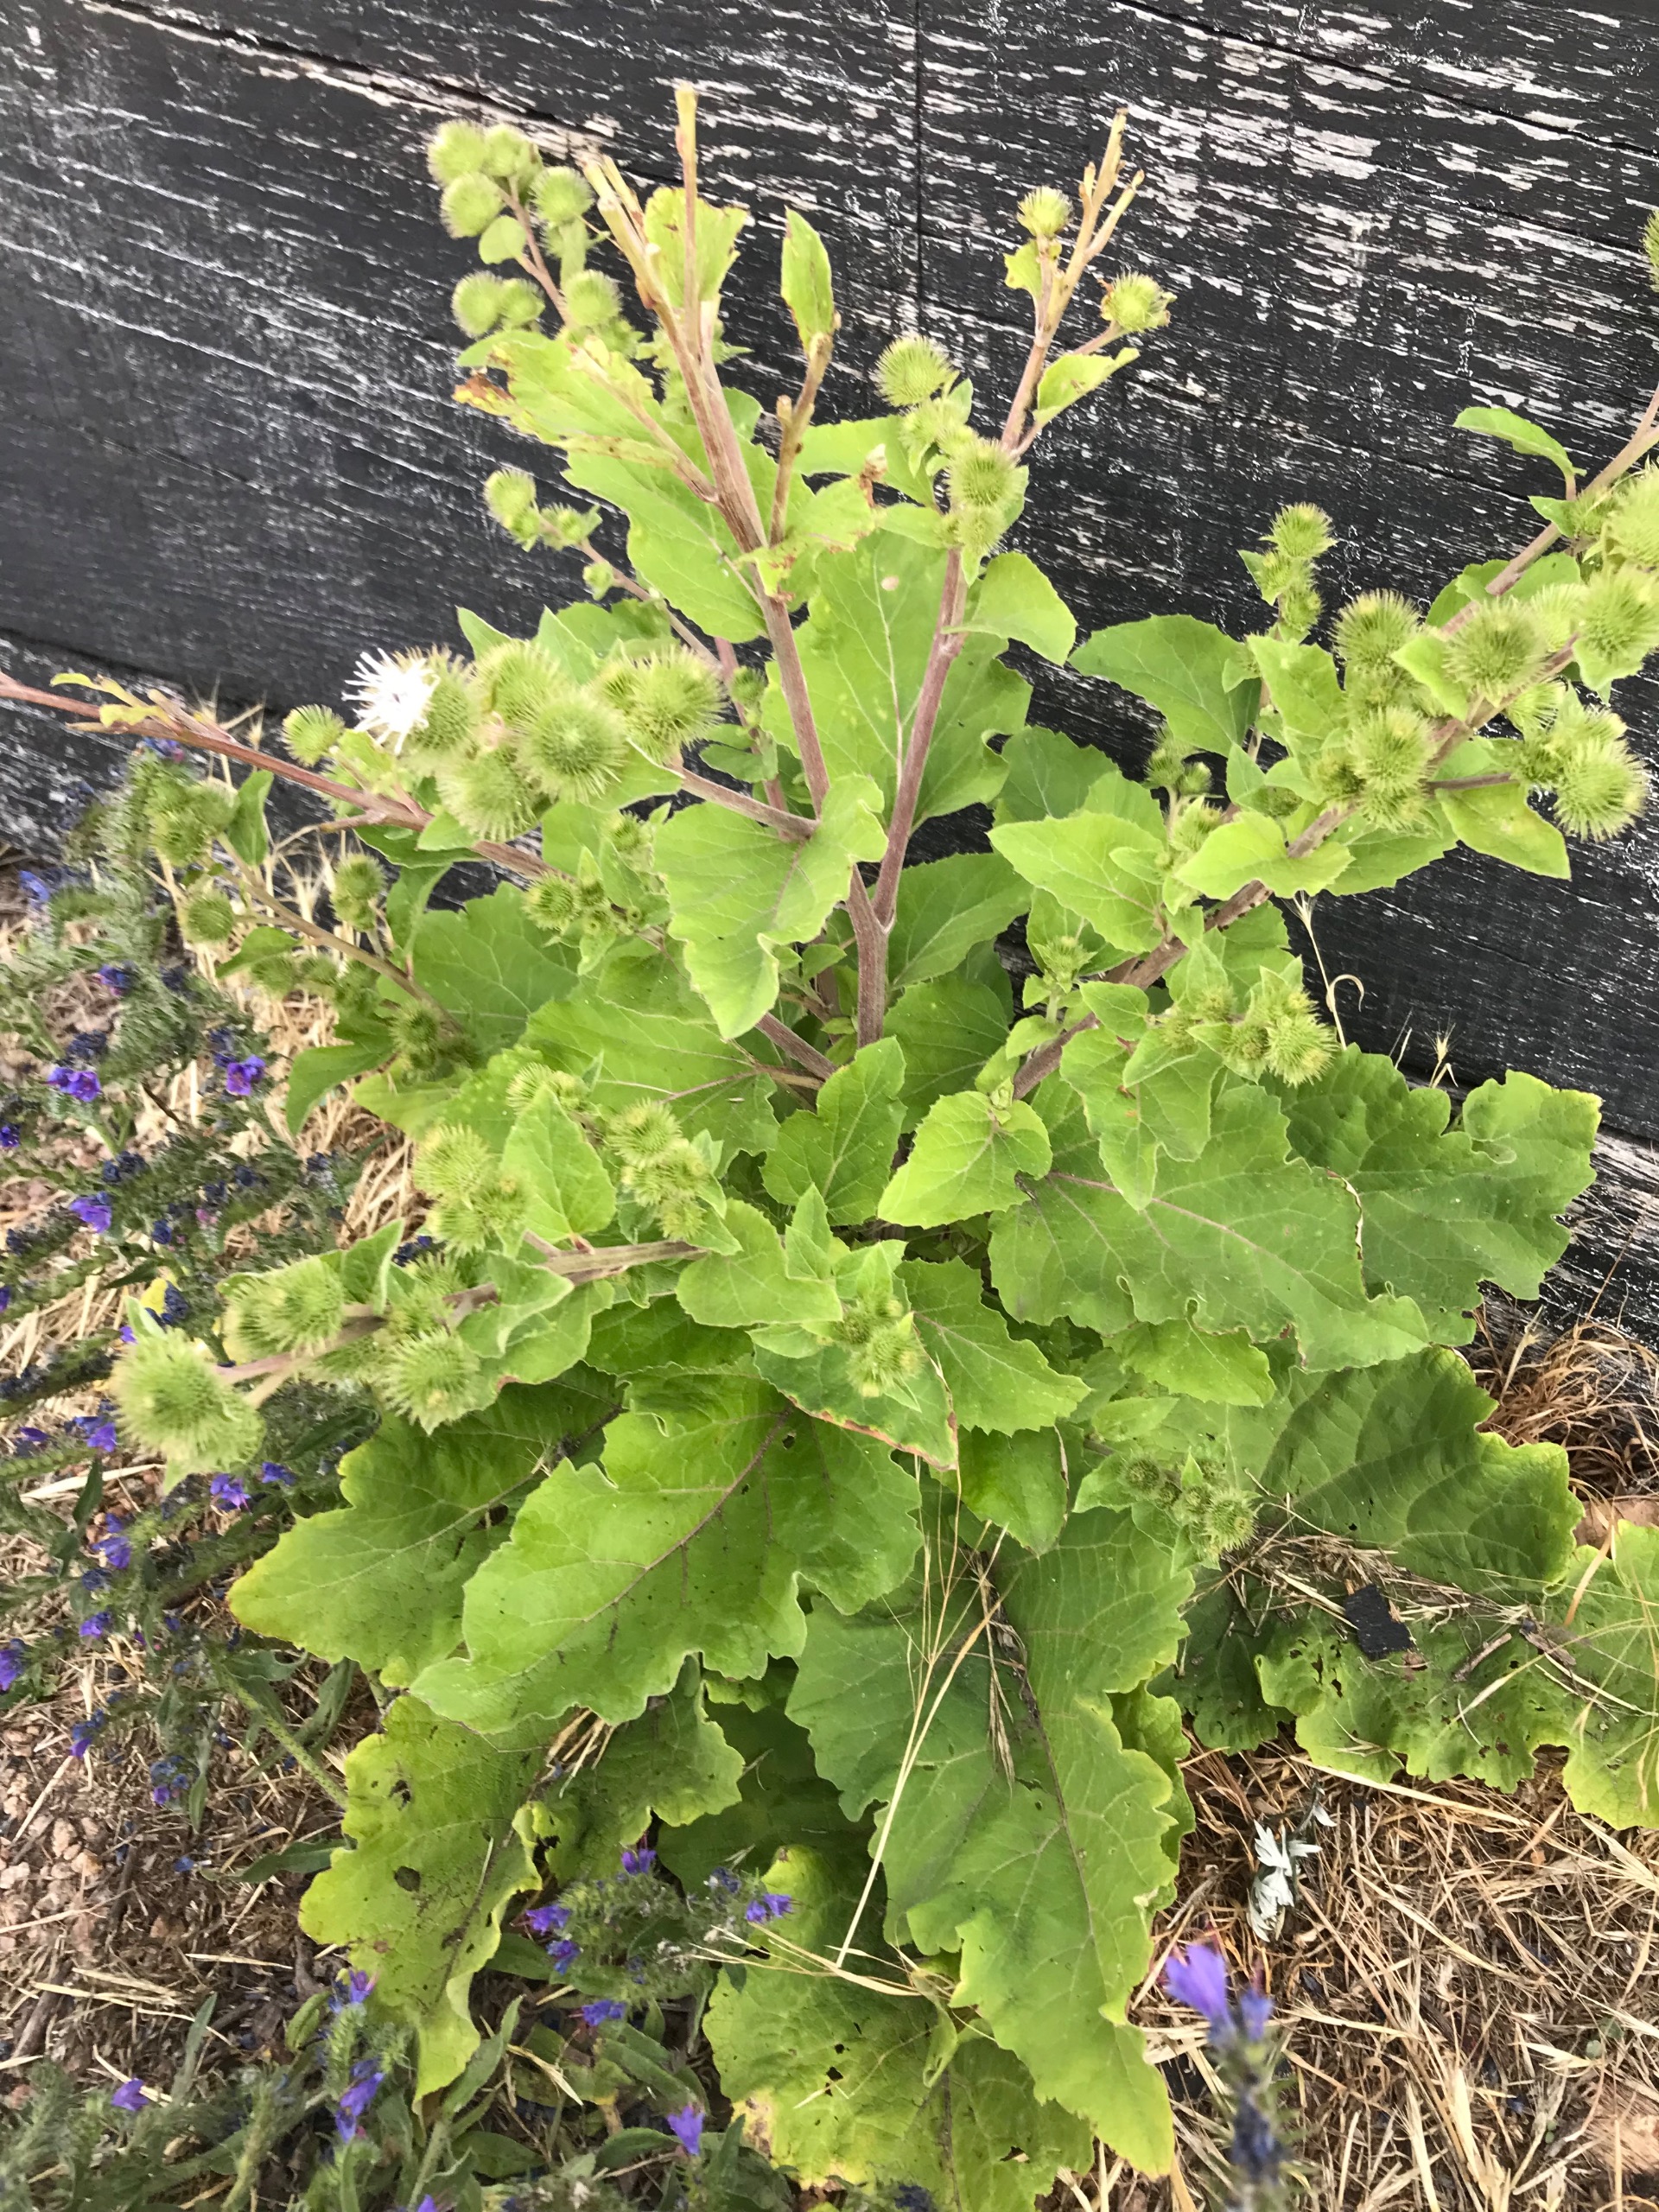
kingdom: Plantae
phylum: Tracheophyta
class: Magnoliopsida
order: Asterales
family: Asteraceae
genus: Arctium
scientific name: Arctium minus
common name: Liden burre
